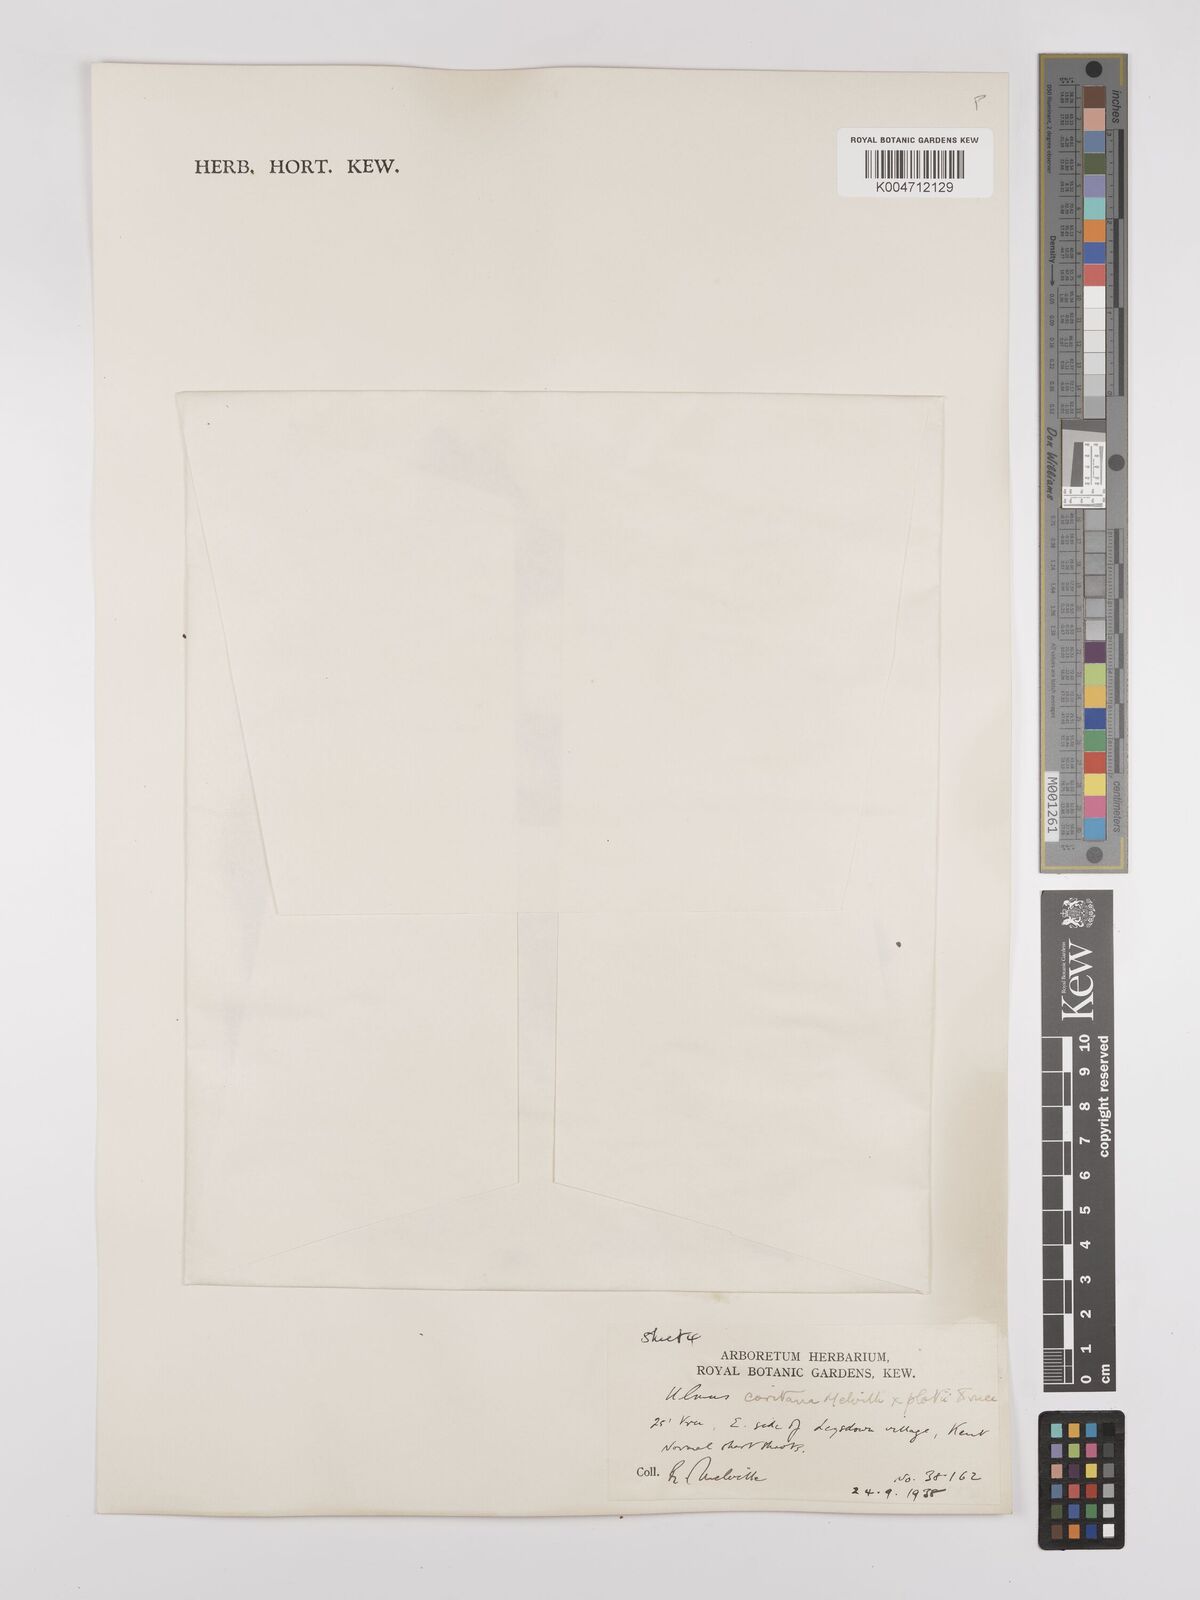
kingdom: Plantae
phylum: Tracheophyta
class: Magnoliopsida
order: Rosales
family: Ulmaceae
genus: Ulmus
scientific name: Ulmus minor
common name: Small-leaved elm
